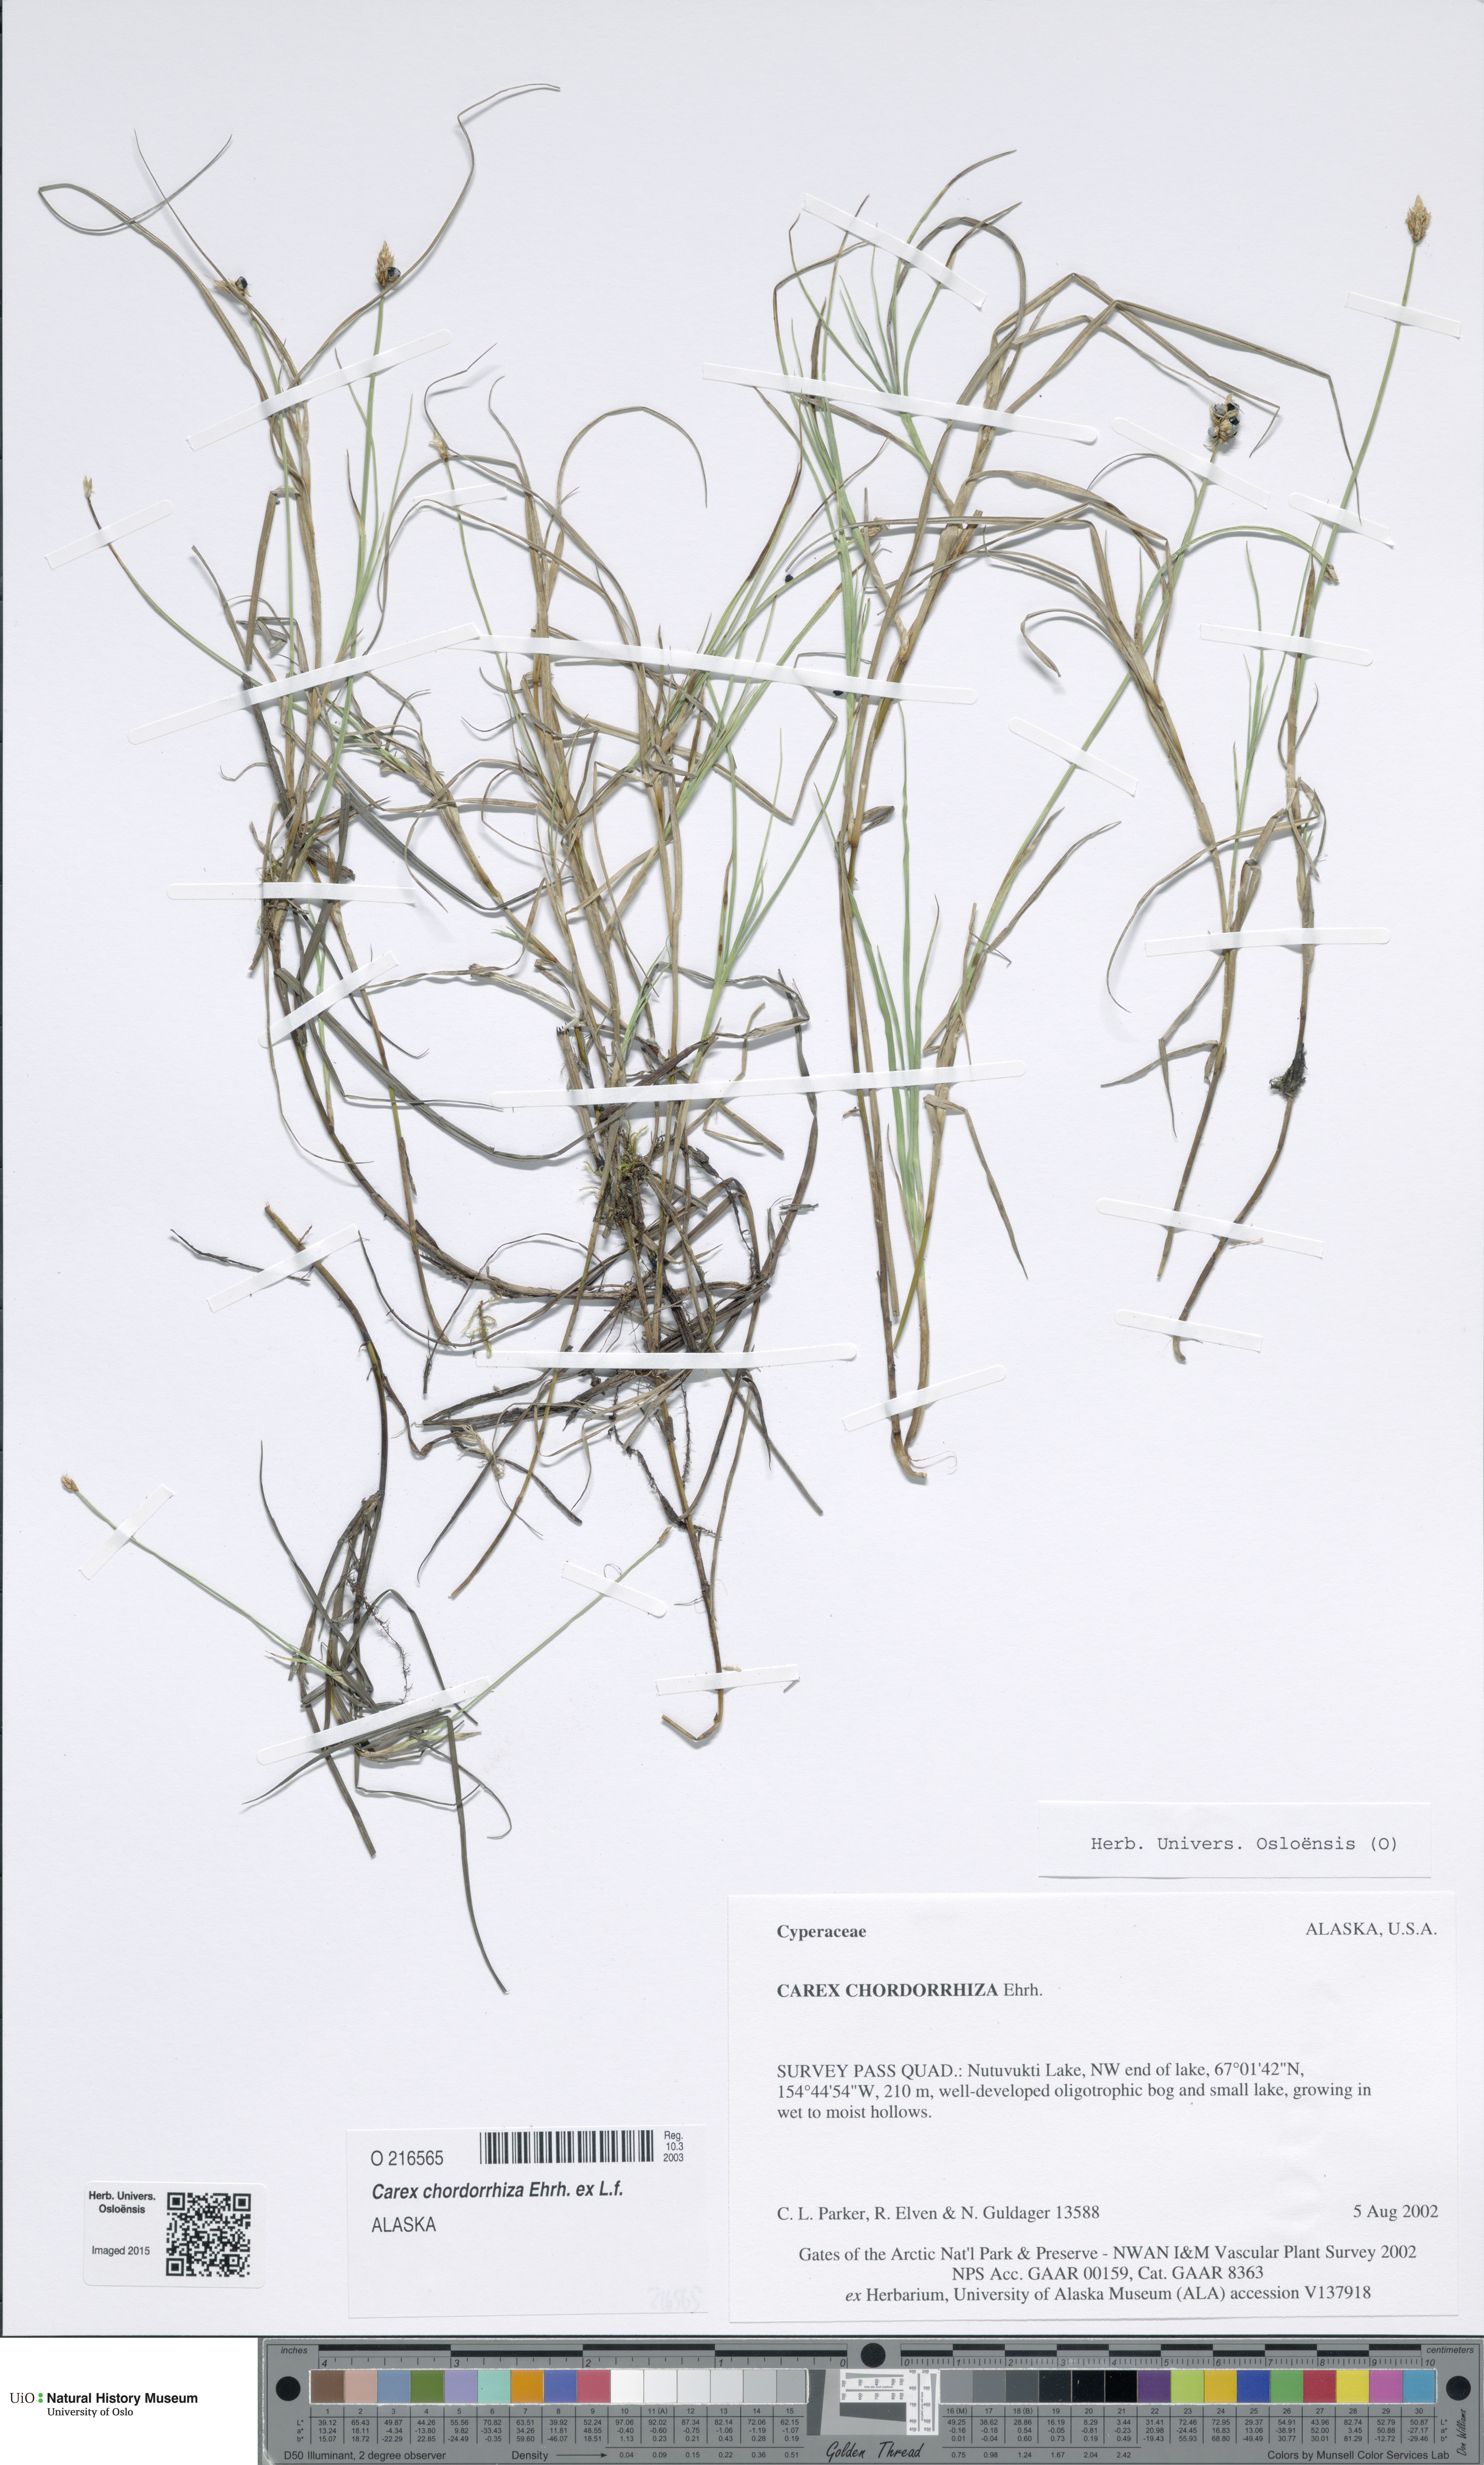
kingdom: Plantae
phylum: Tracheophyta
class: Liliopsida
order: Poales
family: Cyperaceae
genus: Carex
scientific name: Carex chordorrhiza
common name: String sedge
